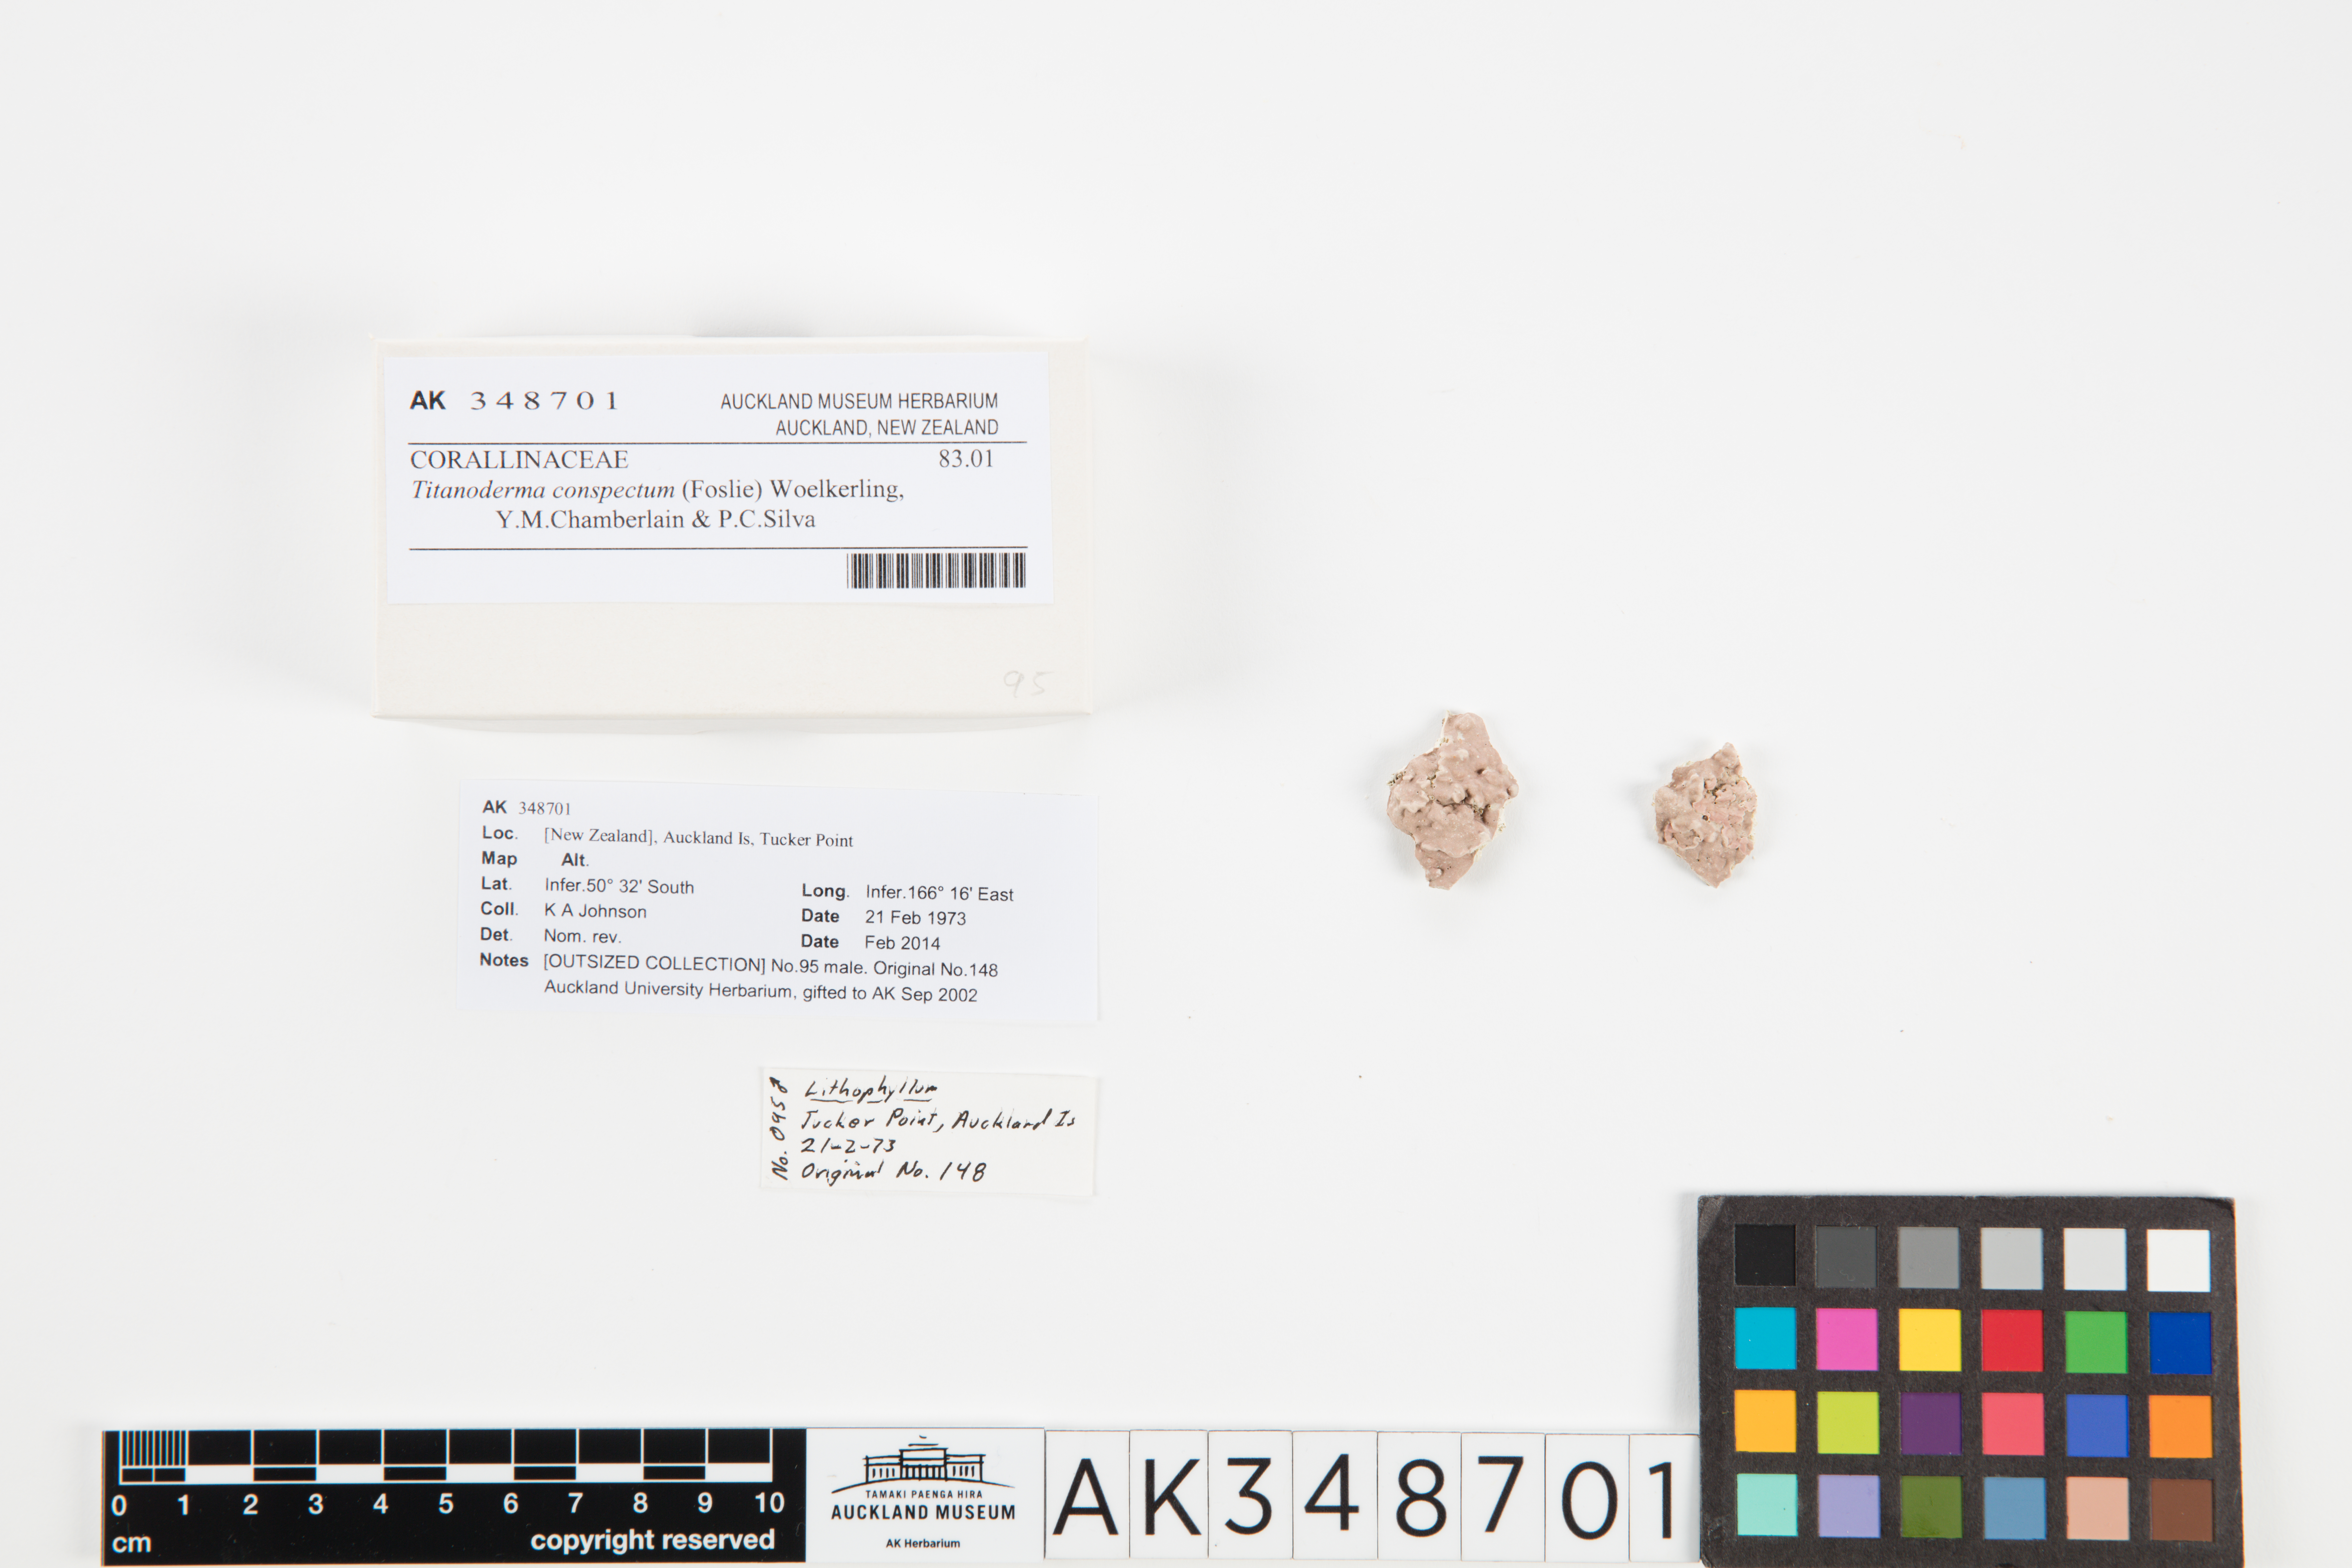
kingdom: Plantae
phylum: Rhodophyta
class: Florideophyceae
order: Corallinales
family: Lithophyllaceae
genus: Titanoderma
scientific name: Titanoderma conspectum
